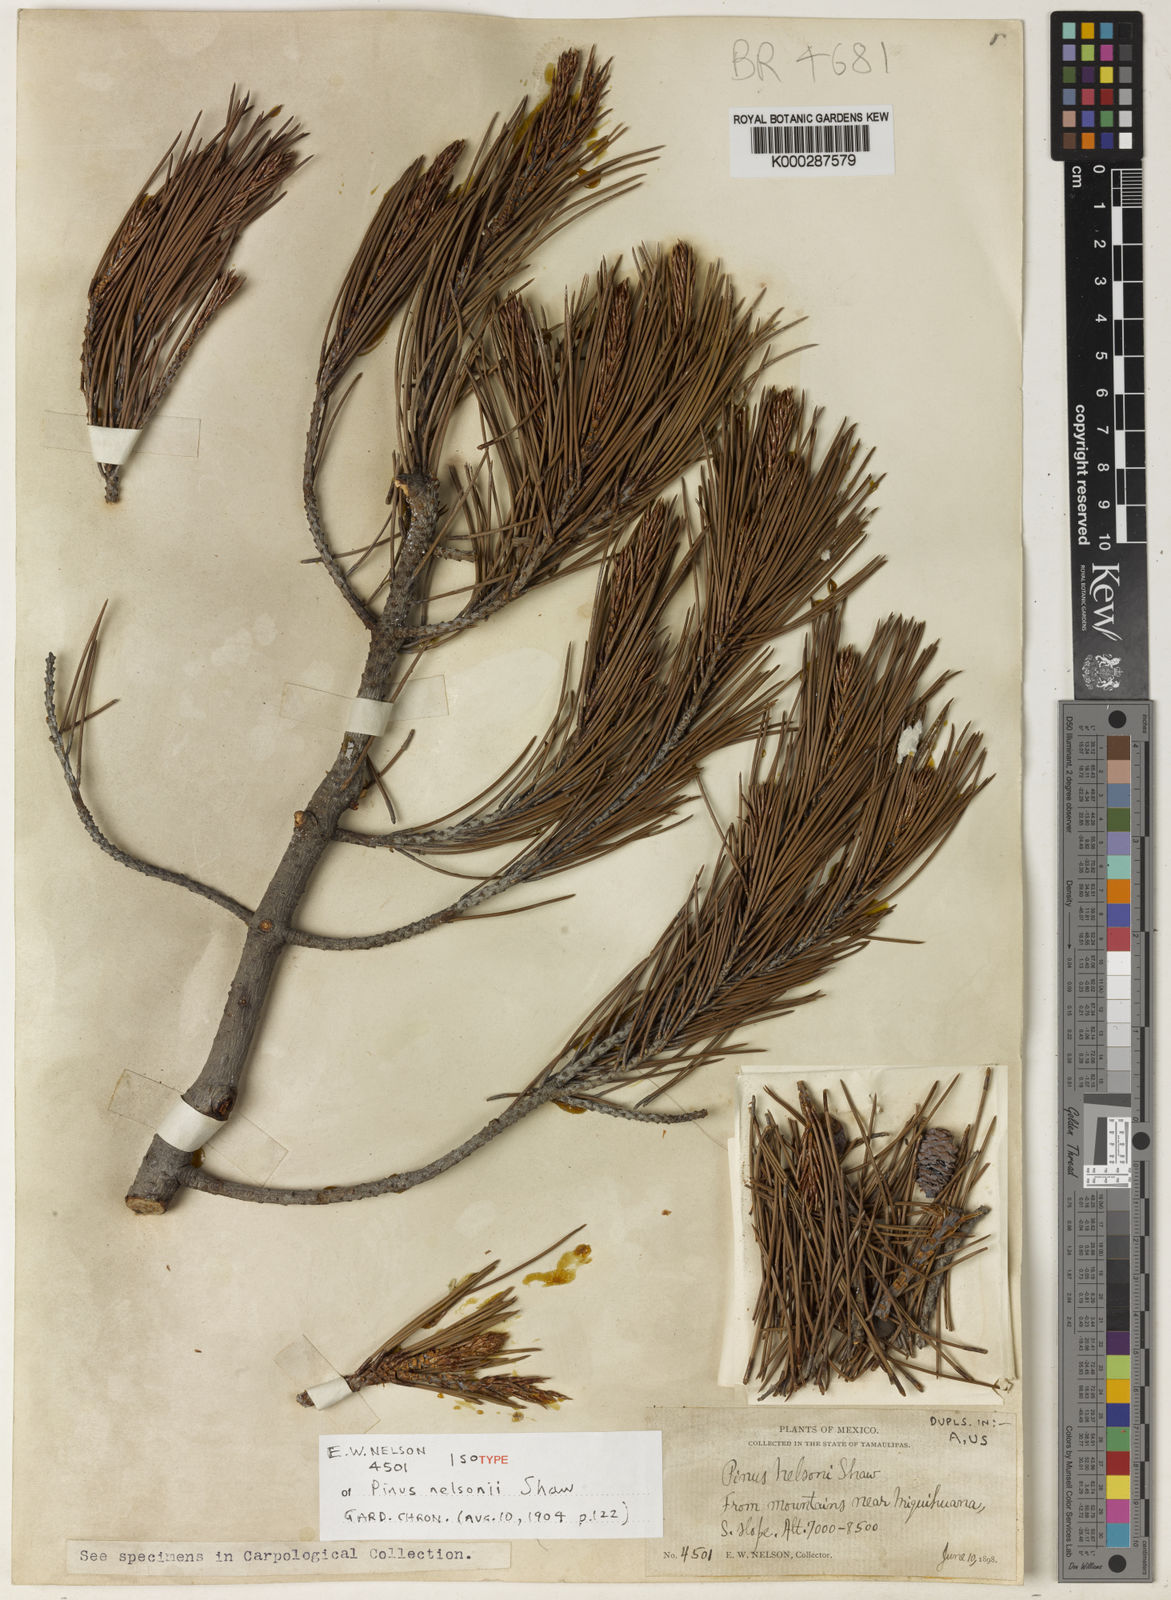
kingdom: Plantae
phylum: Tracheophyta
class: Pinopsida
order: Pinales
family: Pinaceae
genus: Pinus
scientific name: Pinus nelsonii
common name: Nelson pinyon pine
